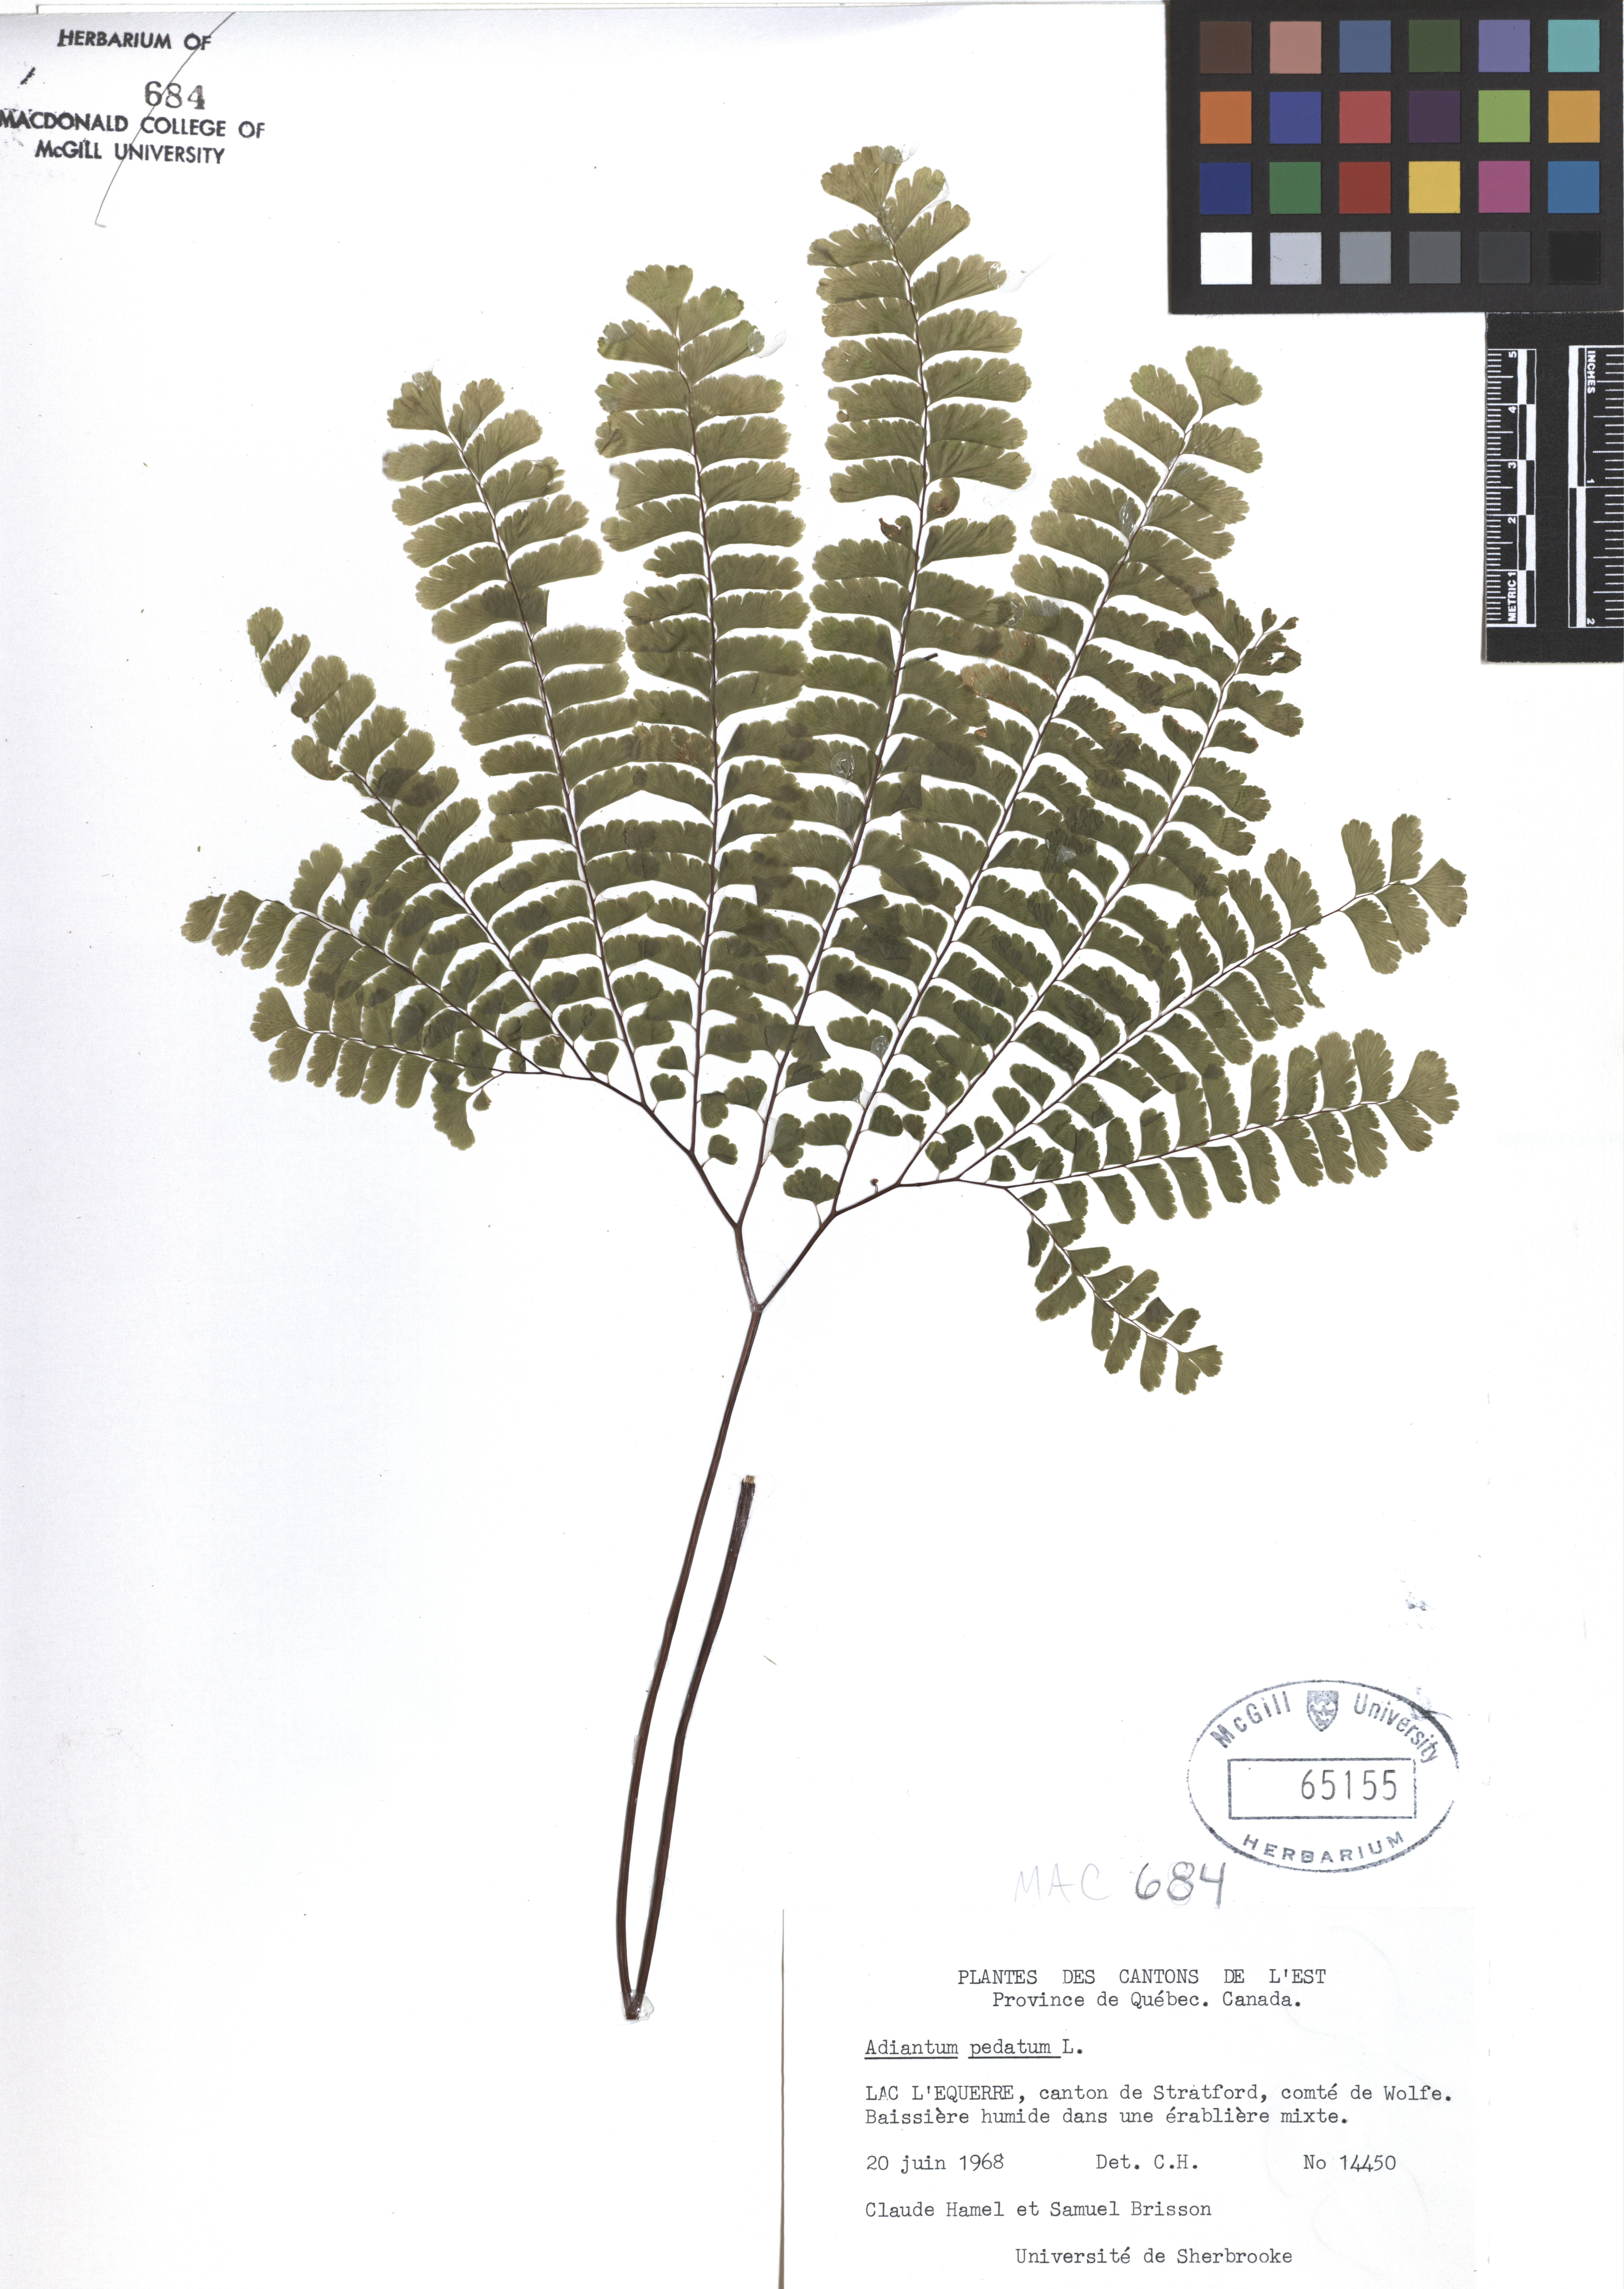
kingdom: Plantae
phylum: Tracheophyta
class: Polypodiopsida
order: Polypodiales
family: Pteridaceae
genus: Adiantum
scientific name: Adiantum pedatum
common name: Five-finger fern
